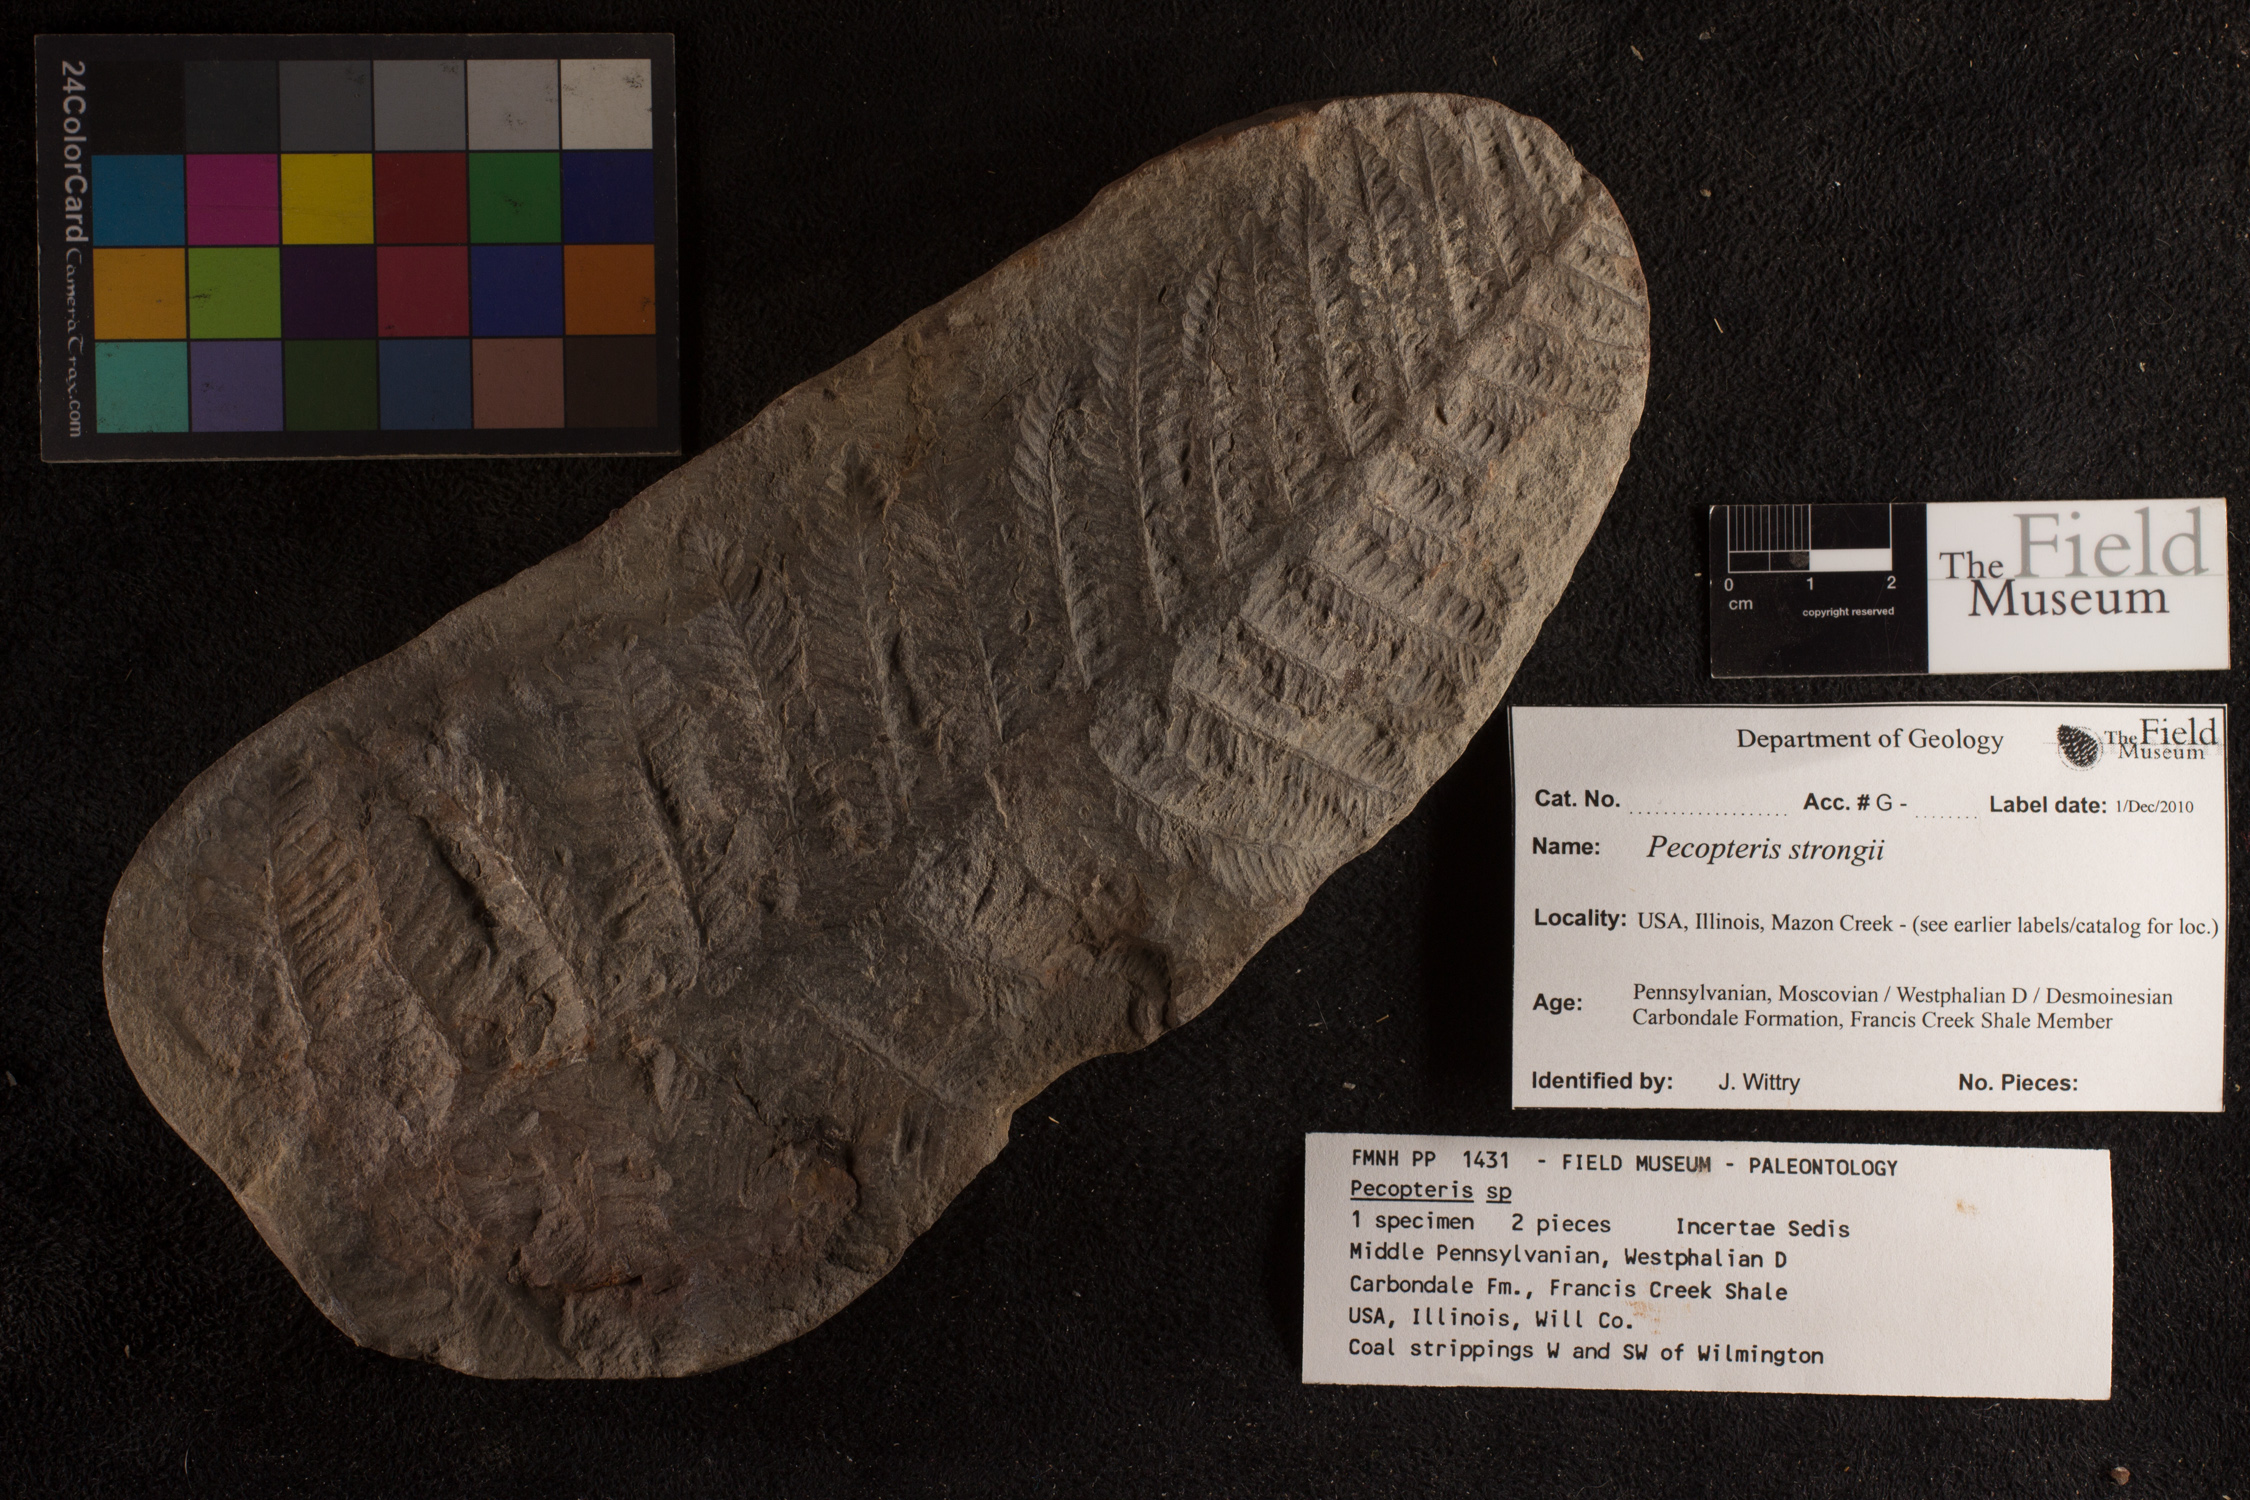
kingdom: Plantae
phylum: Tracheophyta
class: Polypodiopsida
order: Marattiales
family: Asterothecaceae
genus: Pecopteris
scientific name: Pecopteris
